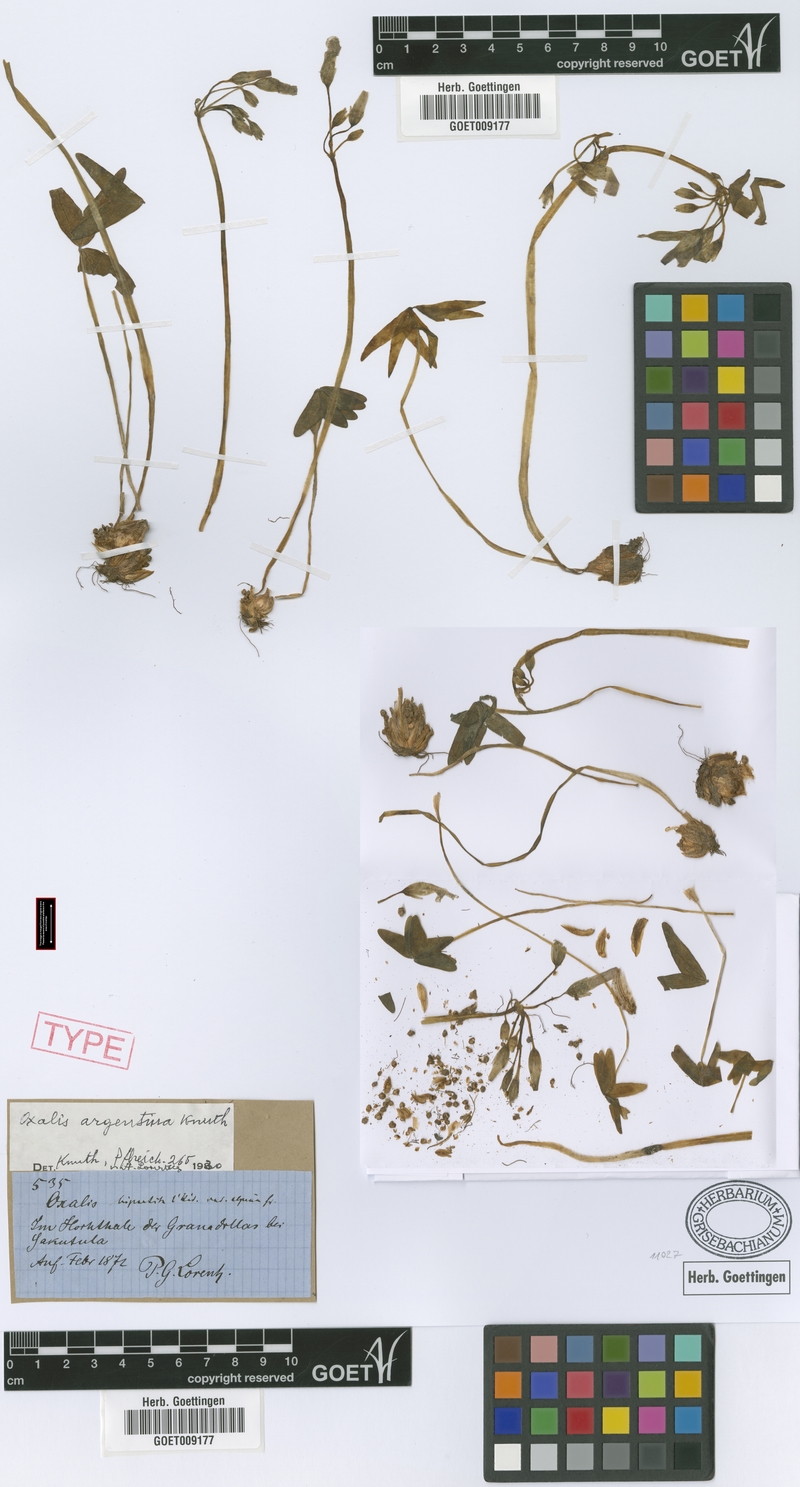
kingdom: Plantae
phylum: Tracheophyta
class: Magnoliopsida
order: Oxalidales
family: Oxalidaceae
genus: Oxalis
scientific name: Oxalis argentina
